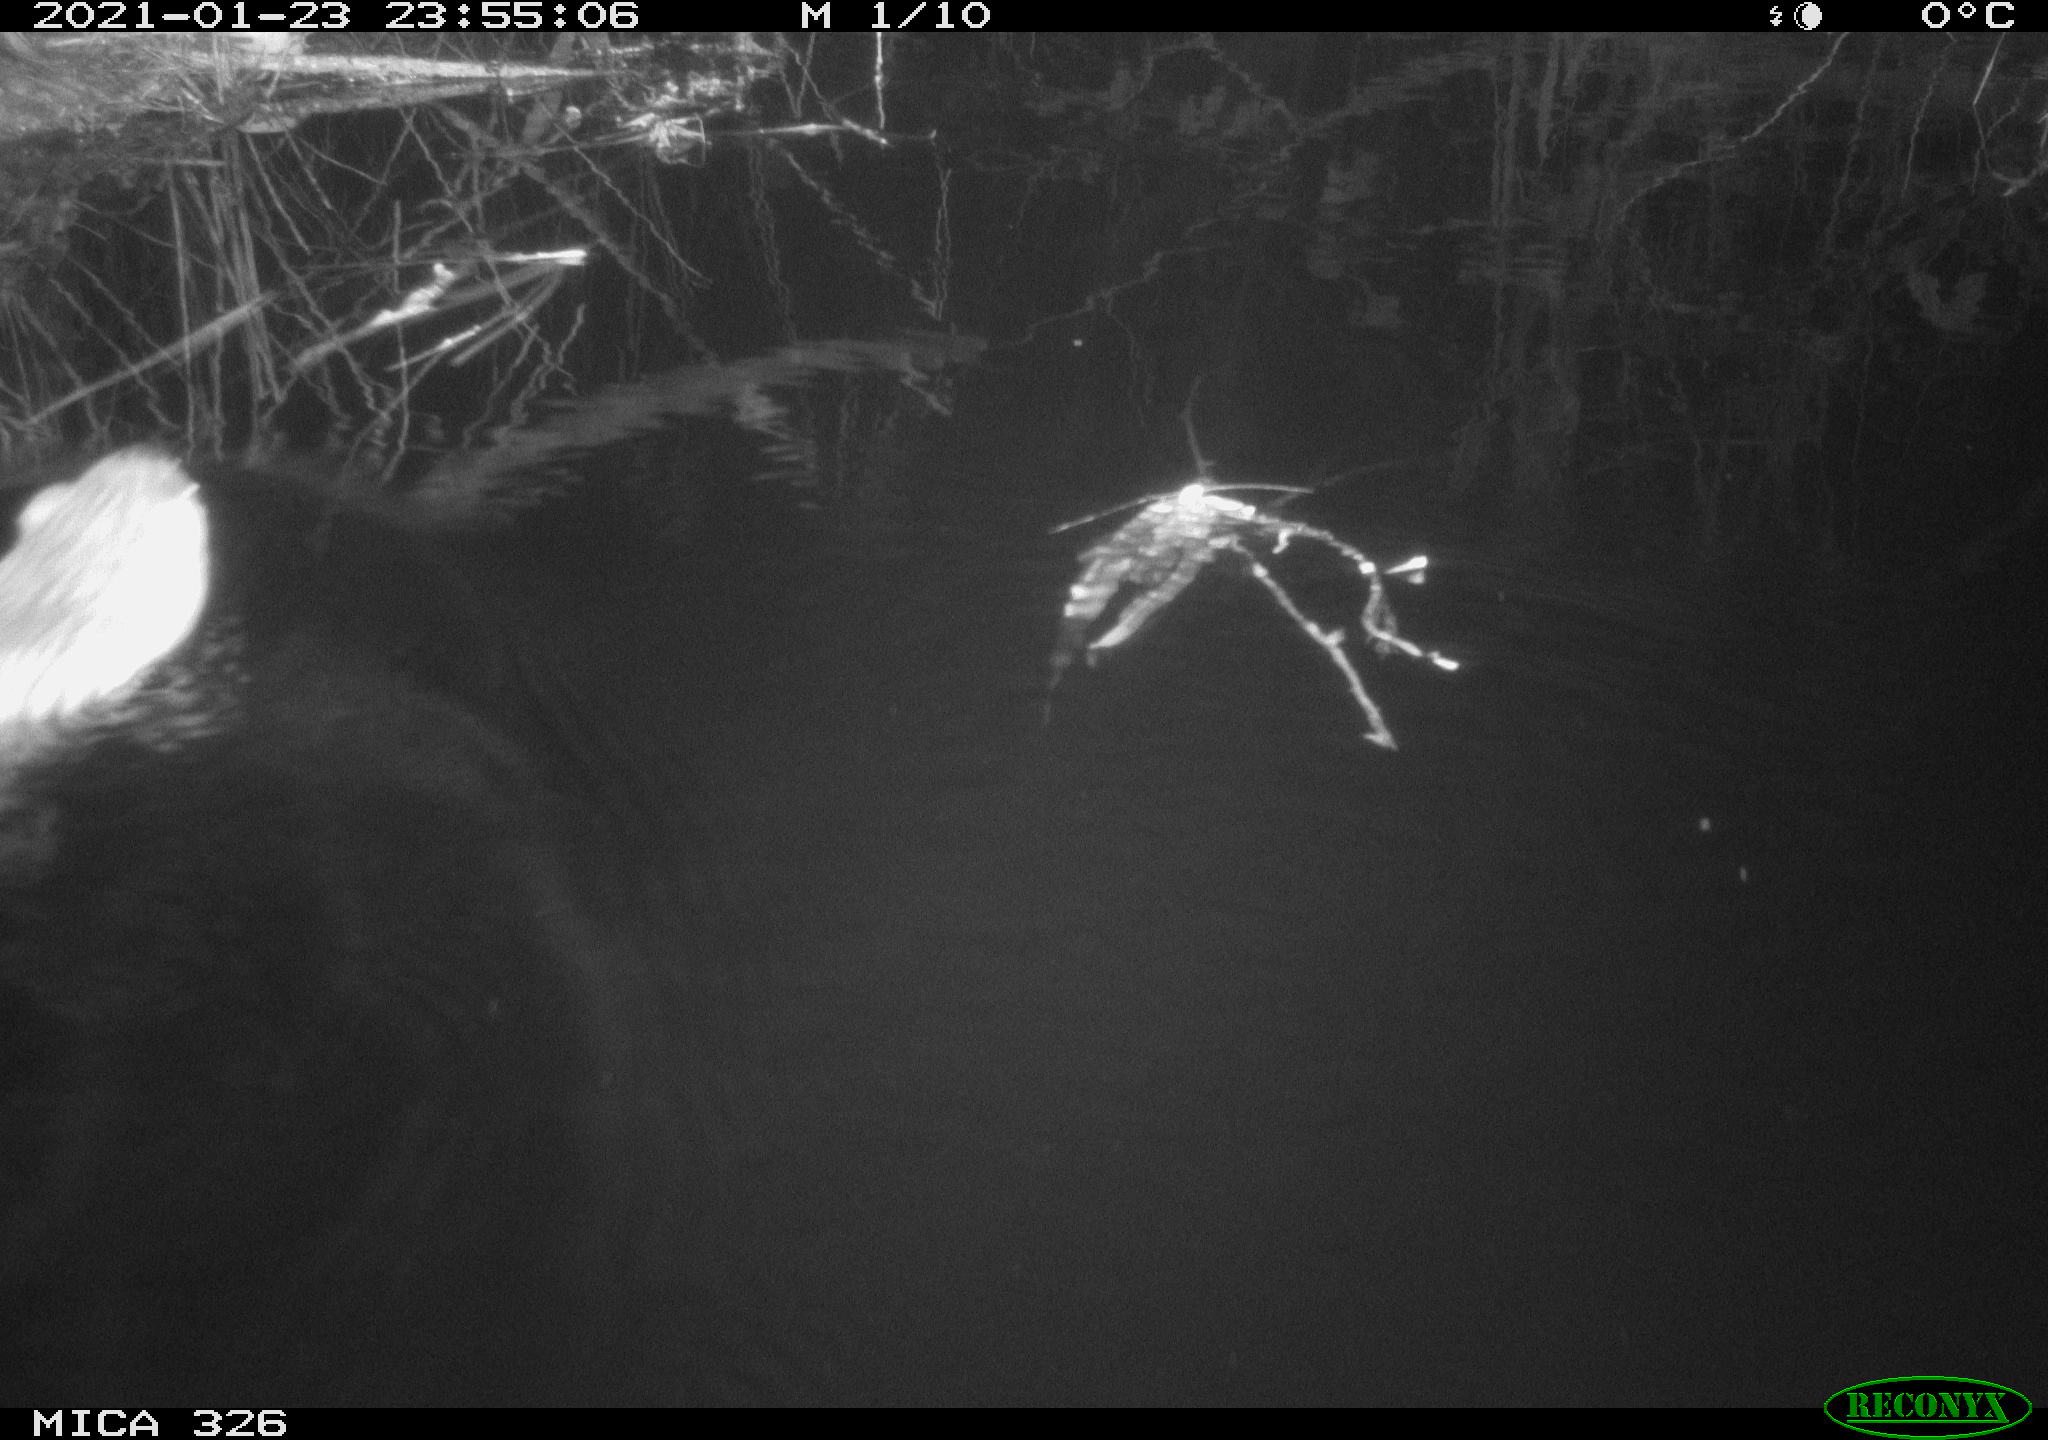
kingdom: Animalia
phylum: Chordata
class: Mammalia
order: Rodentia
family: Cricetidae
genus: Ondatra
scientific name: Ondatra zibethicus
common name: Muskrat
